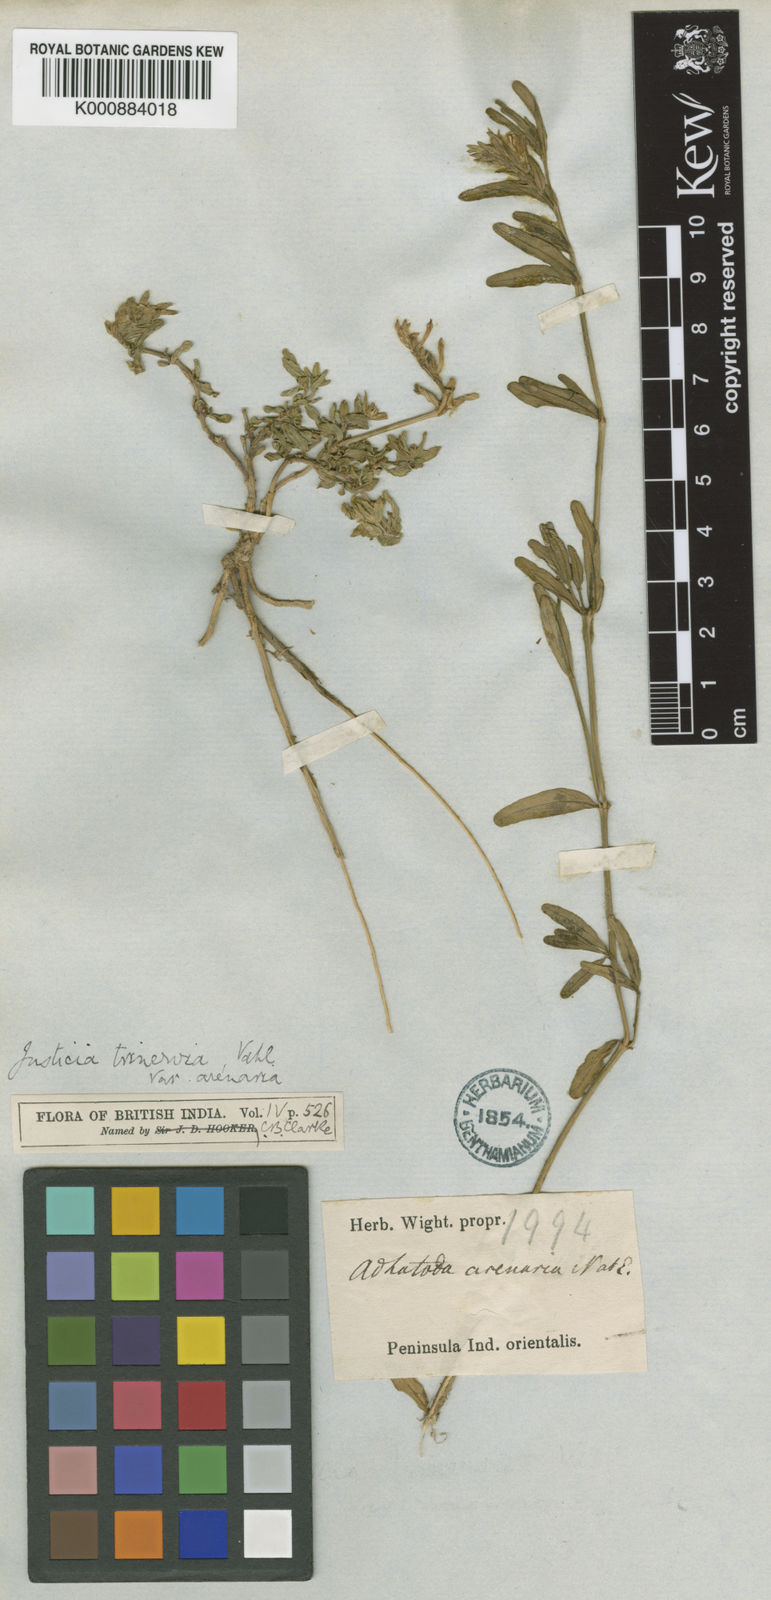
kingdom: Plantae
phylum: Tracheophyta
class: Magnoliopsida
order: Lamiales
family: Acanthaceae
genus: Nicoteba
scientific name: Nicoteba trinervia
